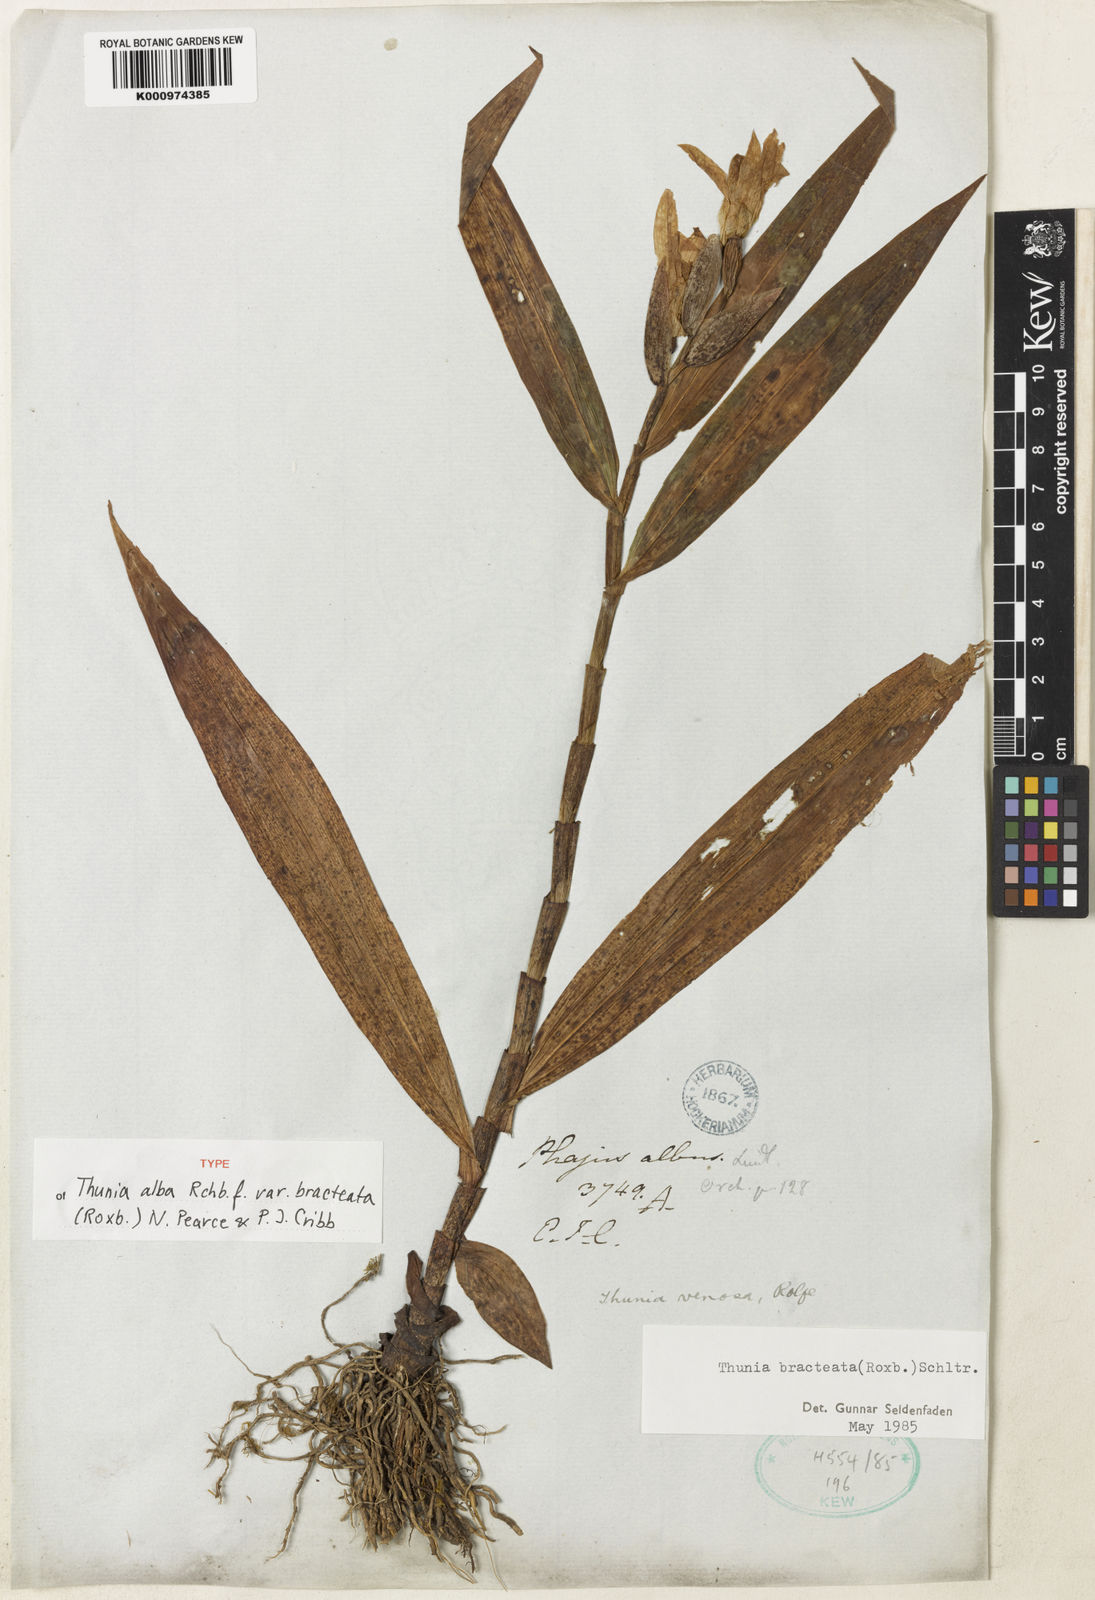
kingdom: Plantae
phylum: Tracheophyta
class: Liliopsida
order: Asparagales
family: Orchidaceae
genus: Thunia
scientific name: Thunia alba
